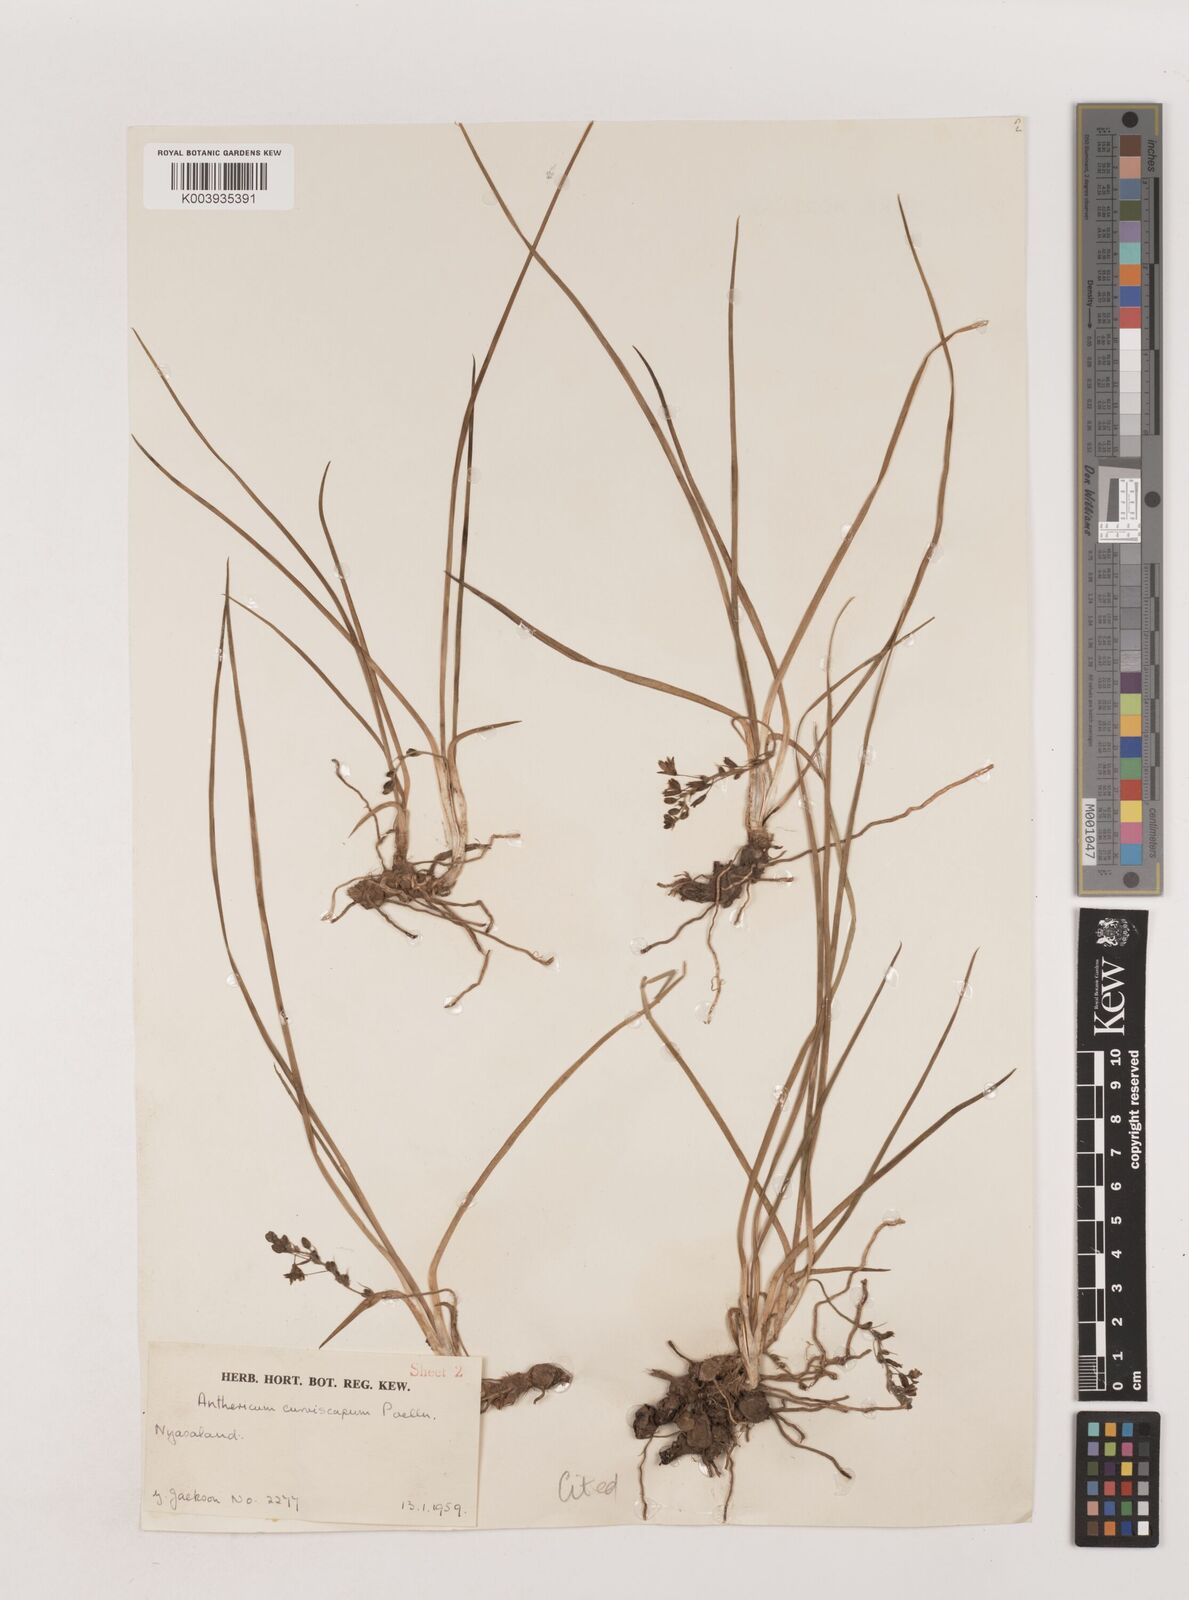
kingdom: Plantae
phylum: Tracheophyta
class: Liliopsida
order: Asparagales
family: Asparagaceae
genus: Chlorophytum
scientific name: Chlorophytum tordense
